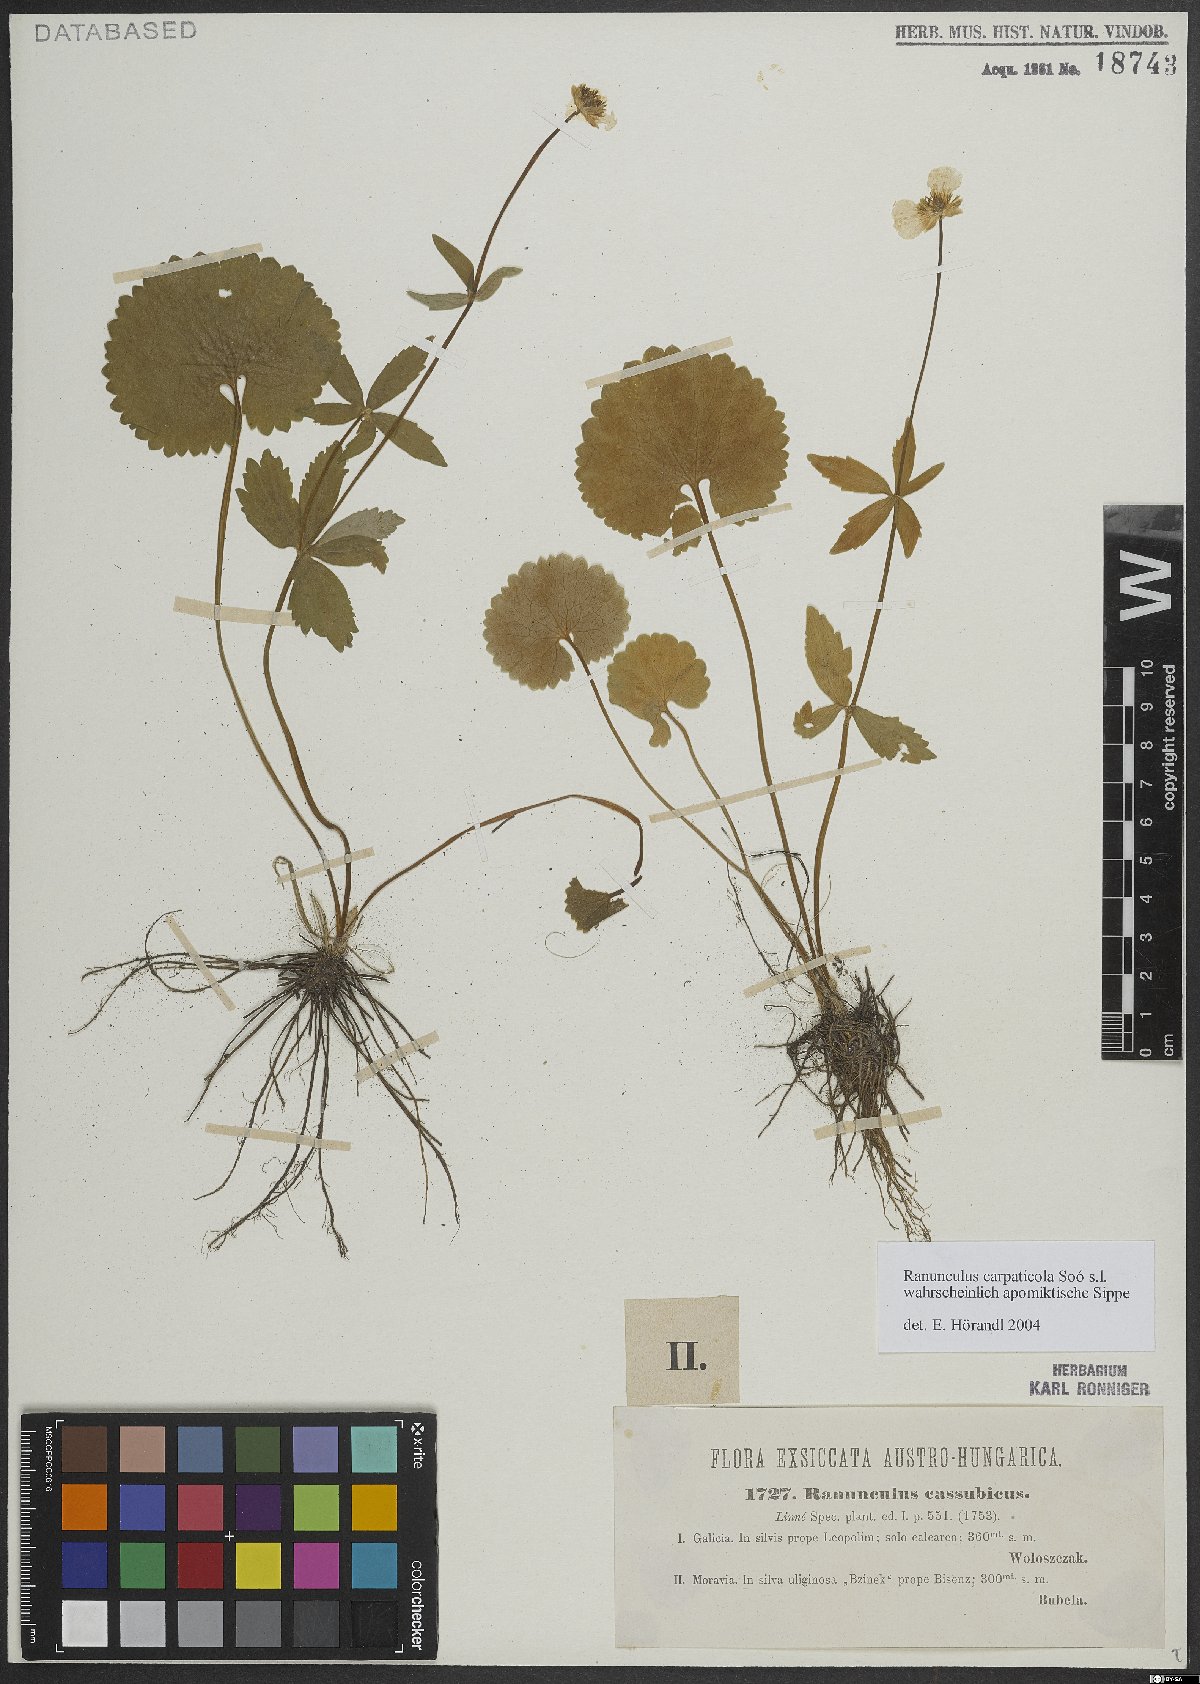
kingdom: Plantae
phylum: Tracheophyta
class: Magnoliopsida
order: Ranunculales
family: Ranunculaceae
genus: Ranunculus
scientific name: Ranunculus cassubicifolius
